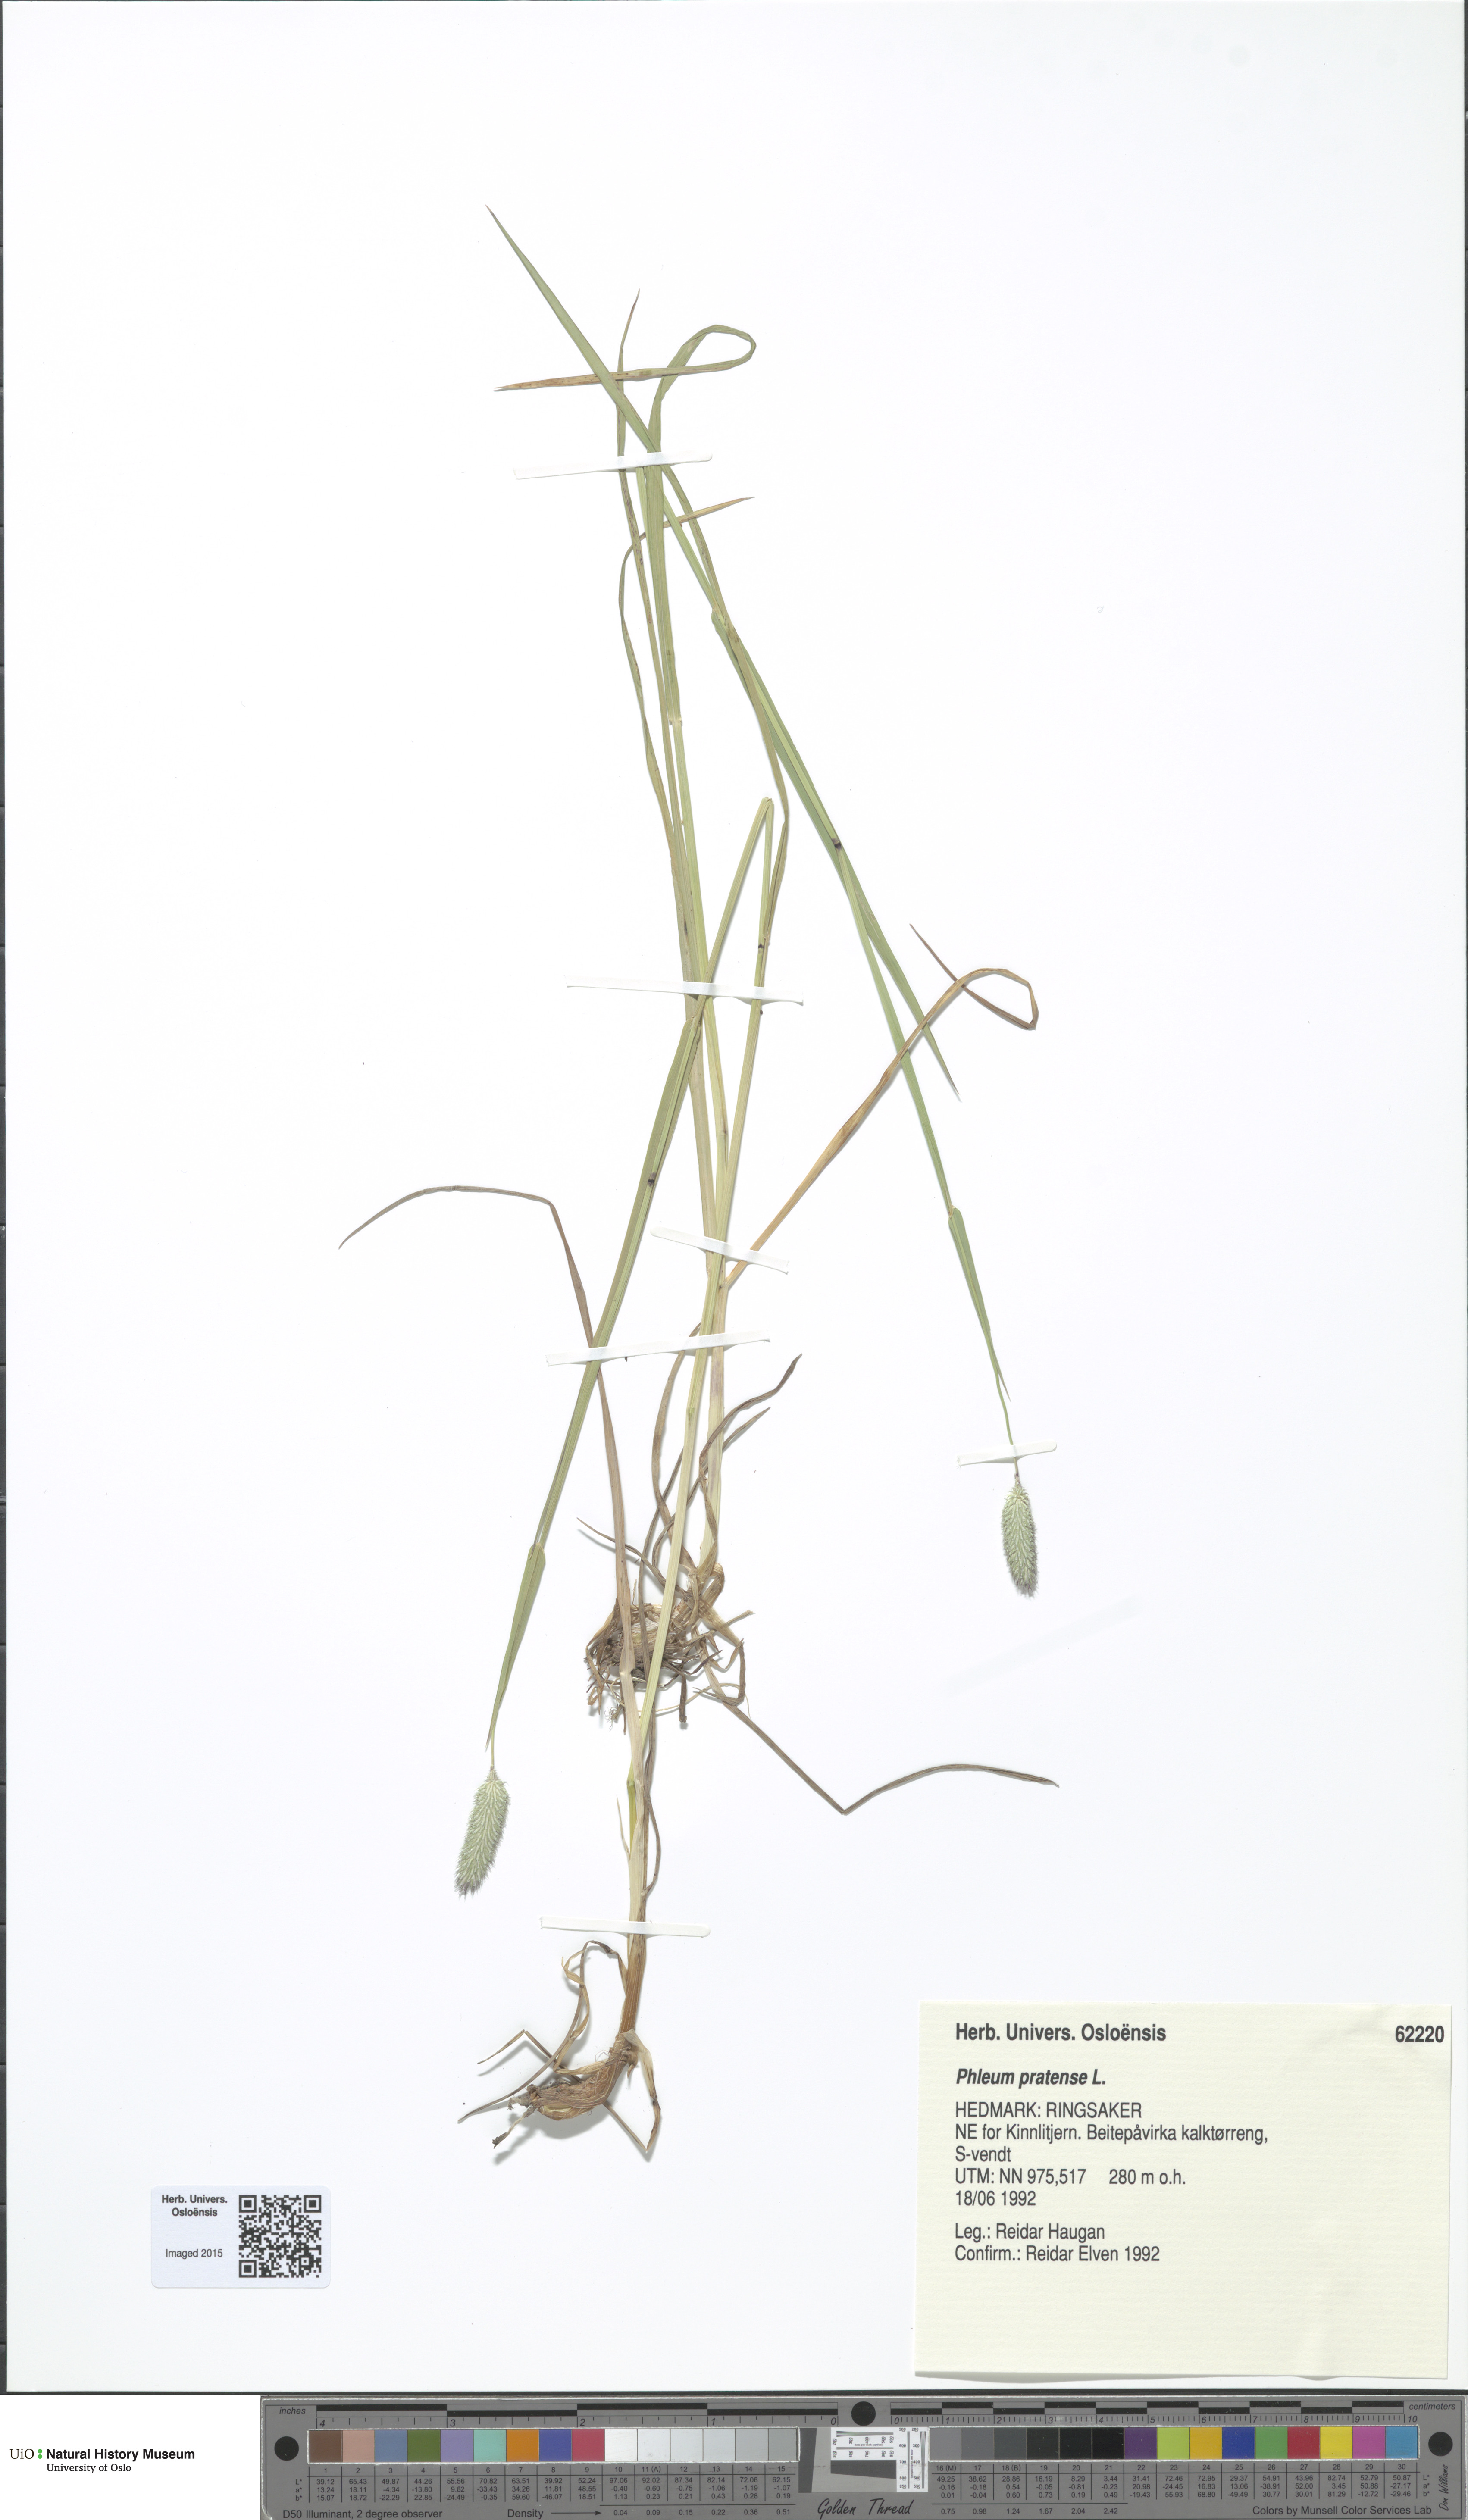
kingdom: Plantae
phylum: Tracheophyta
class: Liliopsida
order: Poales
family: Poaceae
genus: Phleum
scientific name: Phleum pratense
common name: Timothy grass
